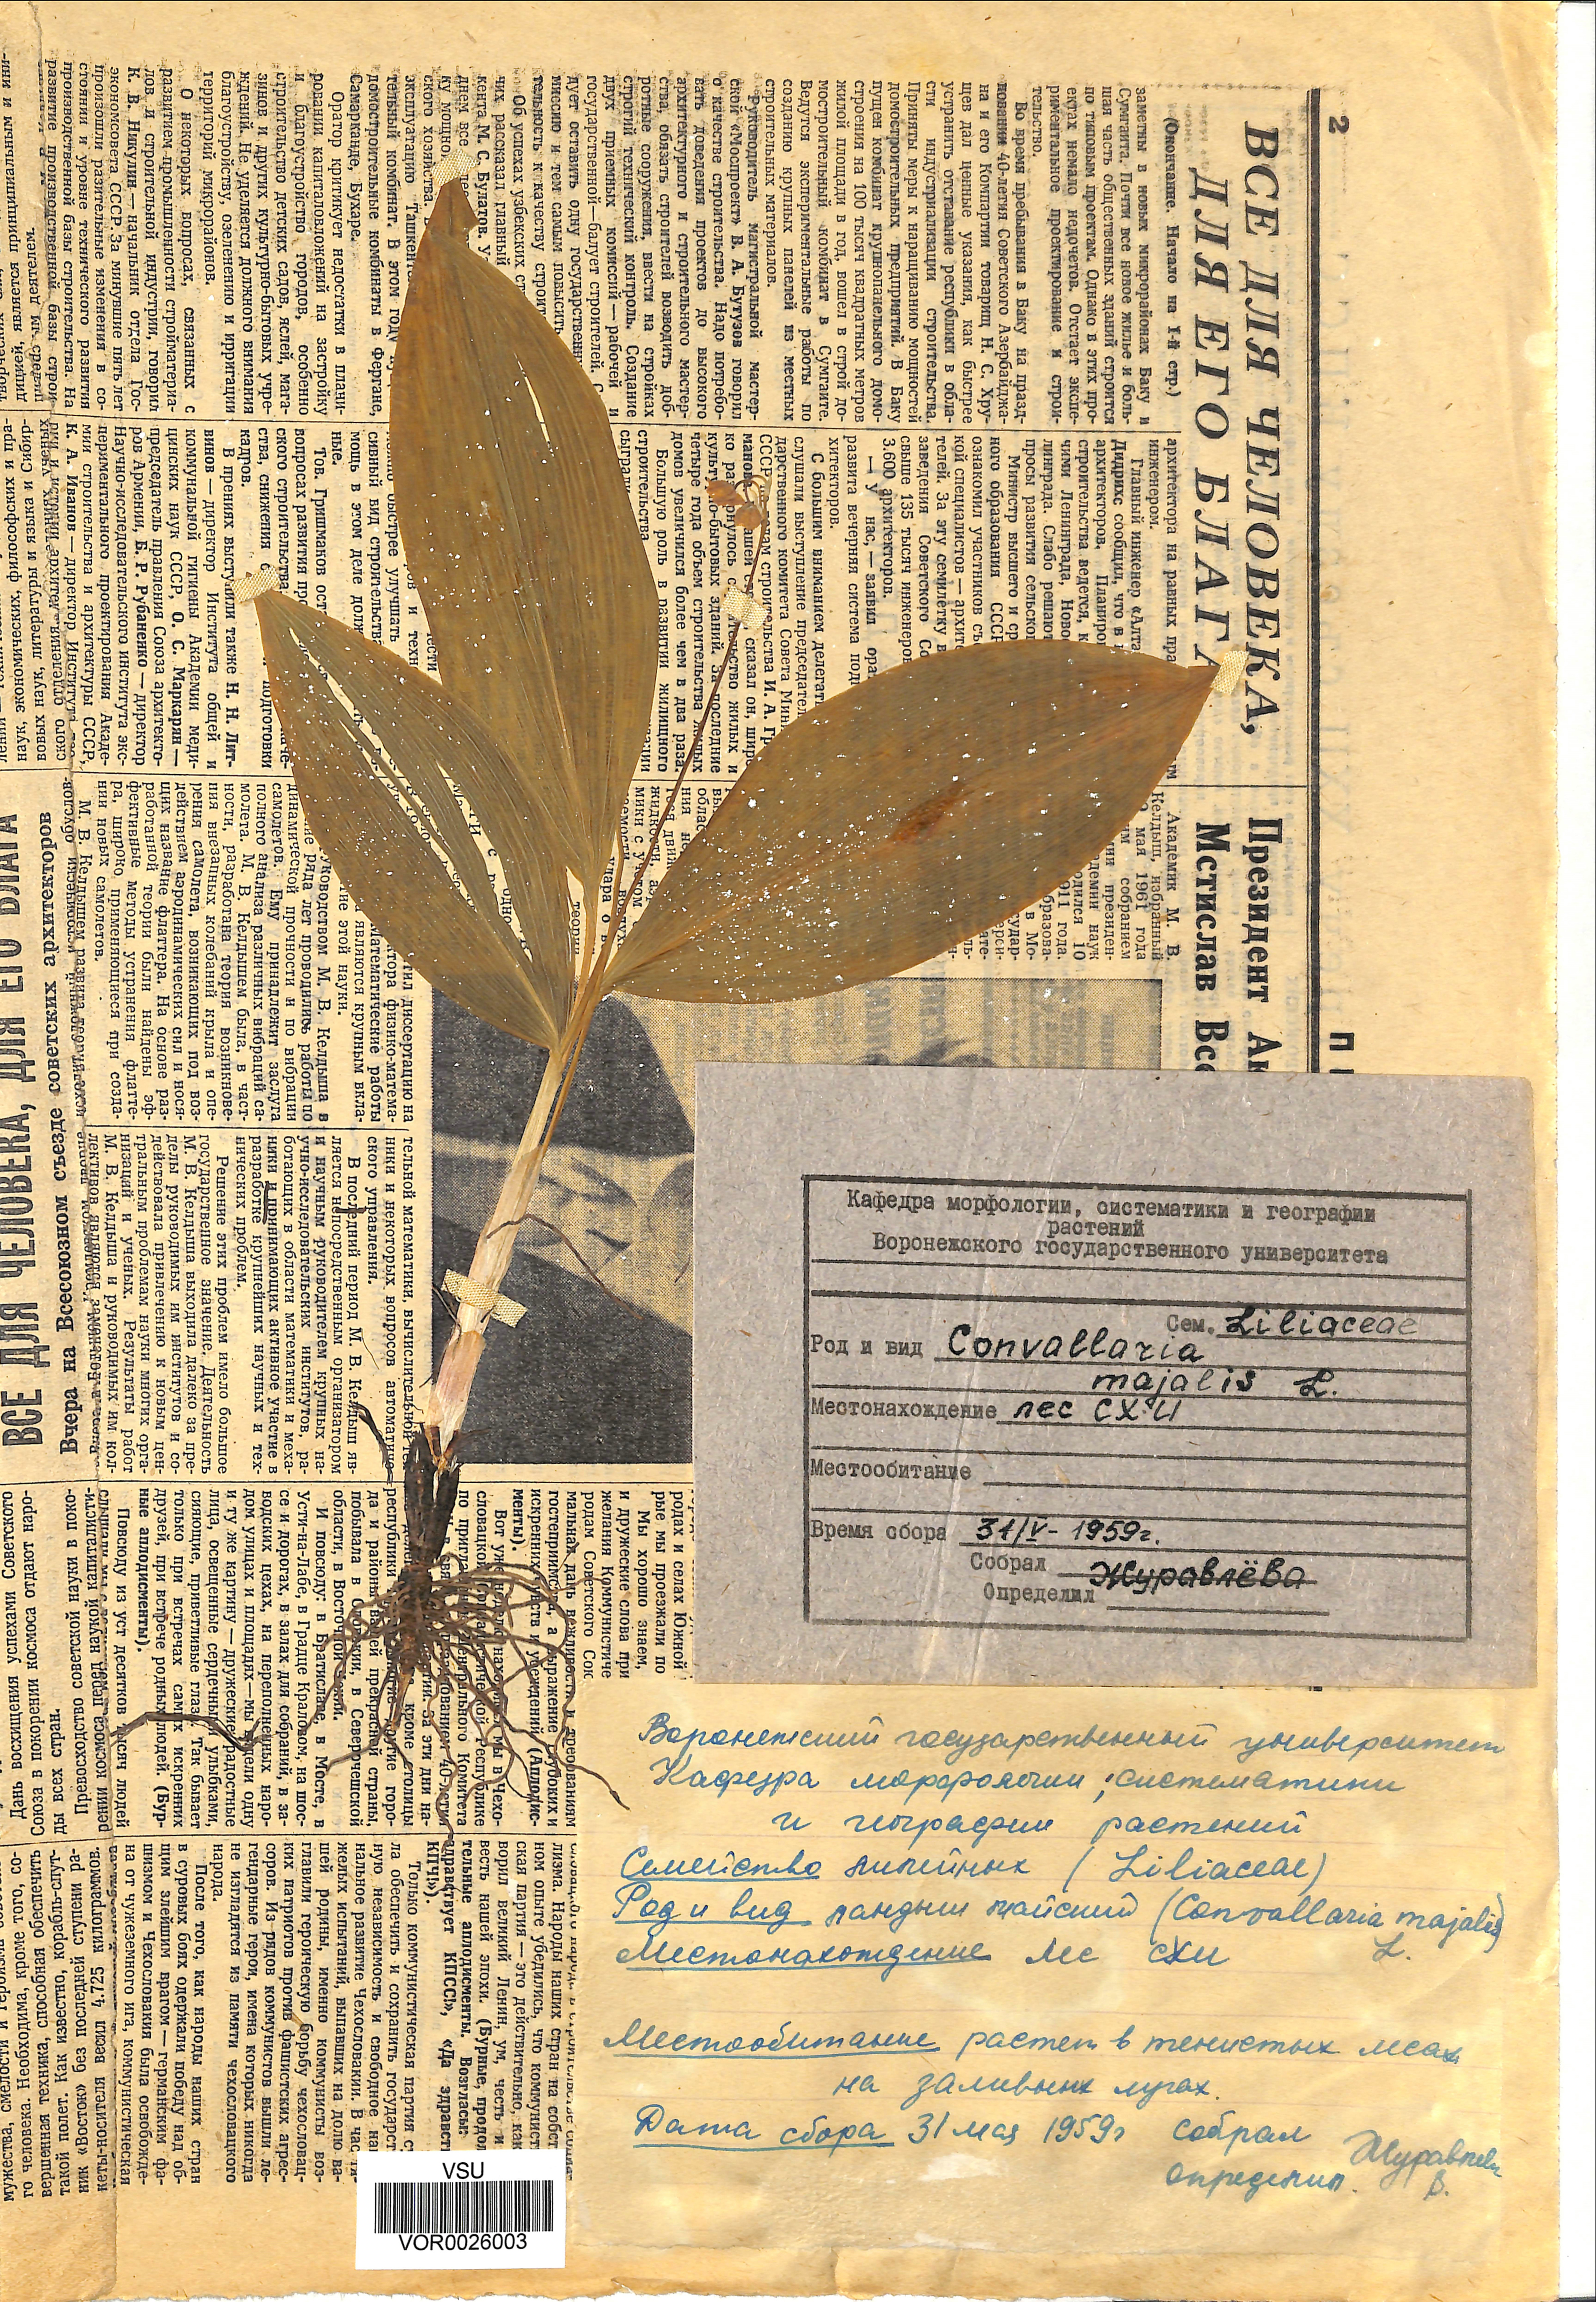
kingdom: Plantae
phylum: Tracheophyta
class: Liliopsida
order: Asparagales
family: Asparagaceae
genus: Convallaria
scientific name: Convallaria majalis
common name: Lily-of-the-valley
